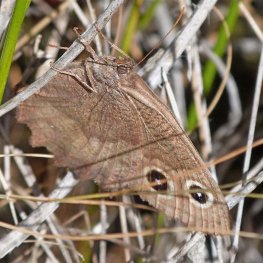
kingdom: Animalia
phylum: Arthropoda
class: Insecta
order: Lepidoptera
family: Nymphalidae
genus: Cercyonis
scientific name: Cercyonis pegala
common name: Common Wood-Nymph
